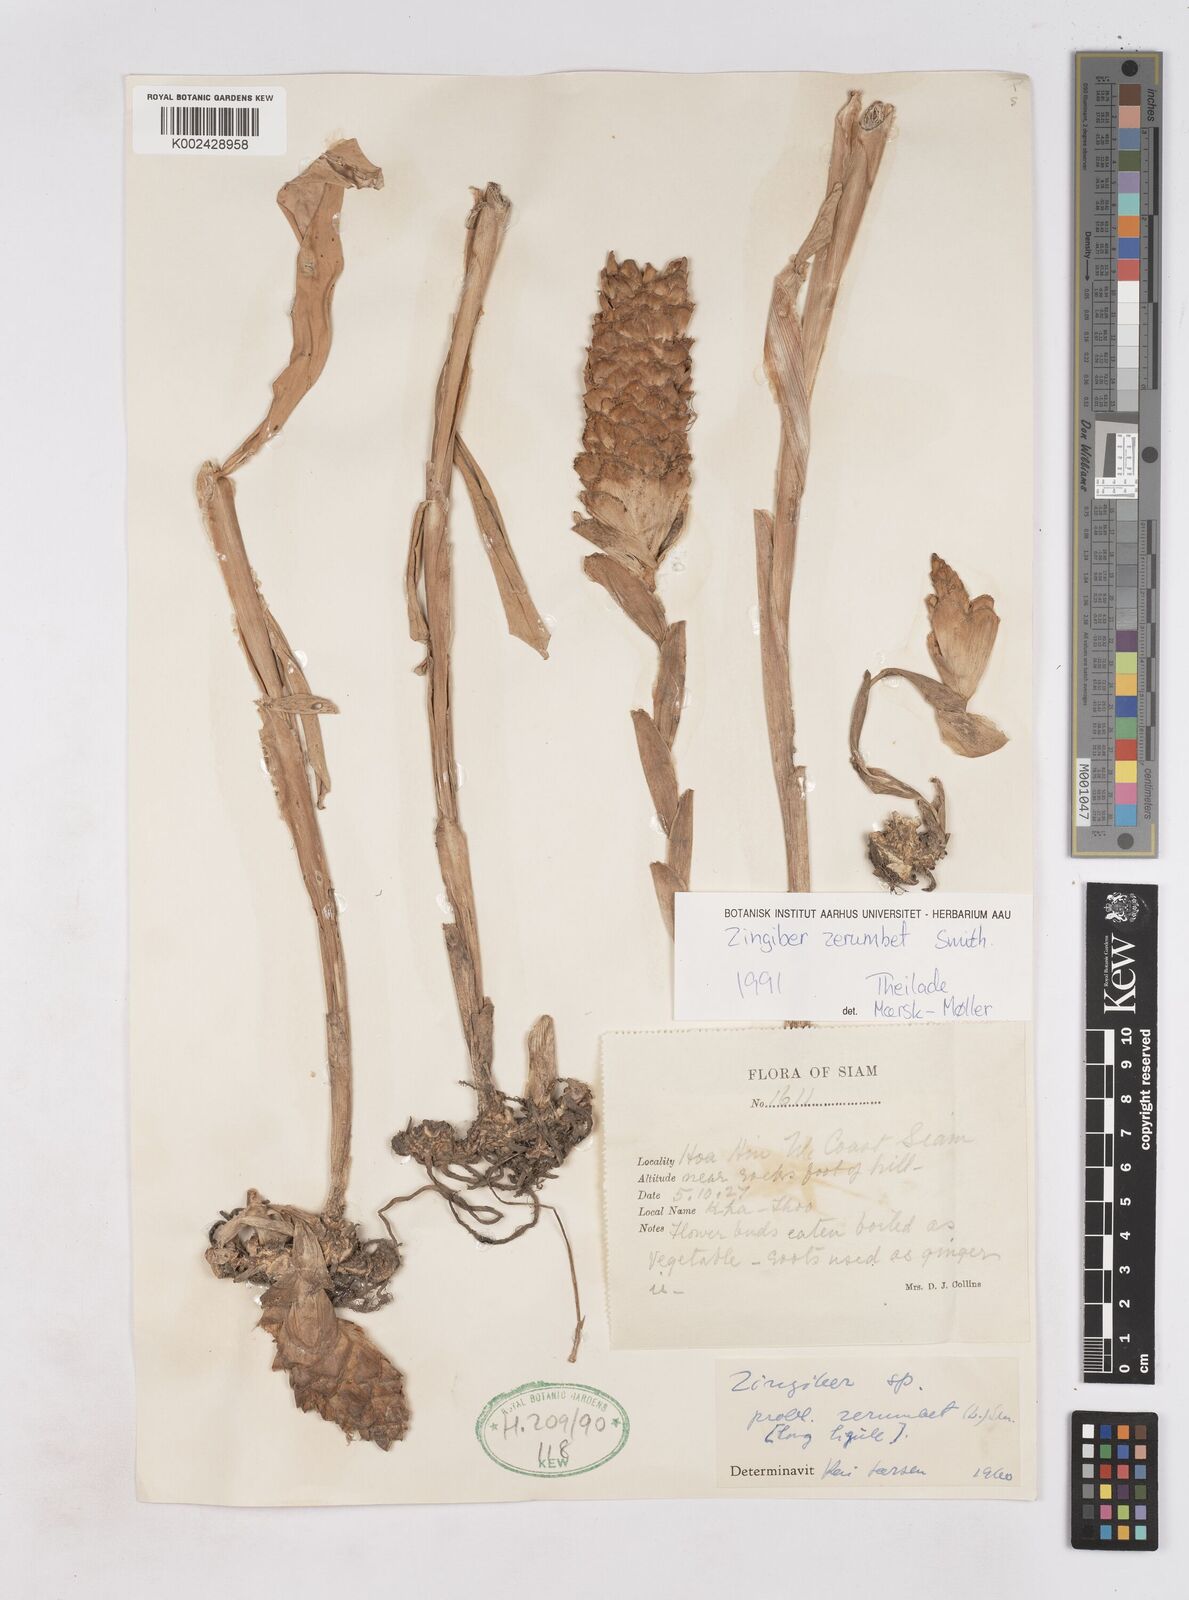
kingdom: Plantae
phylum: Tracheophyta
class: Liliopsida
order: Zingiberales
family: Zingiberaceae
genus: Zingiber
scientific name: Zingiber zerumbet
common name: Bitter ginger
